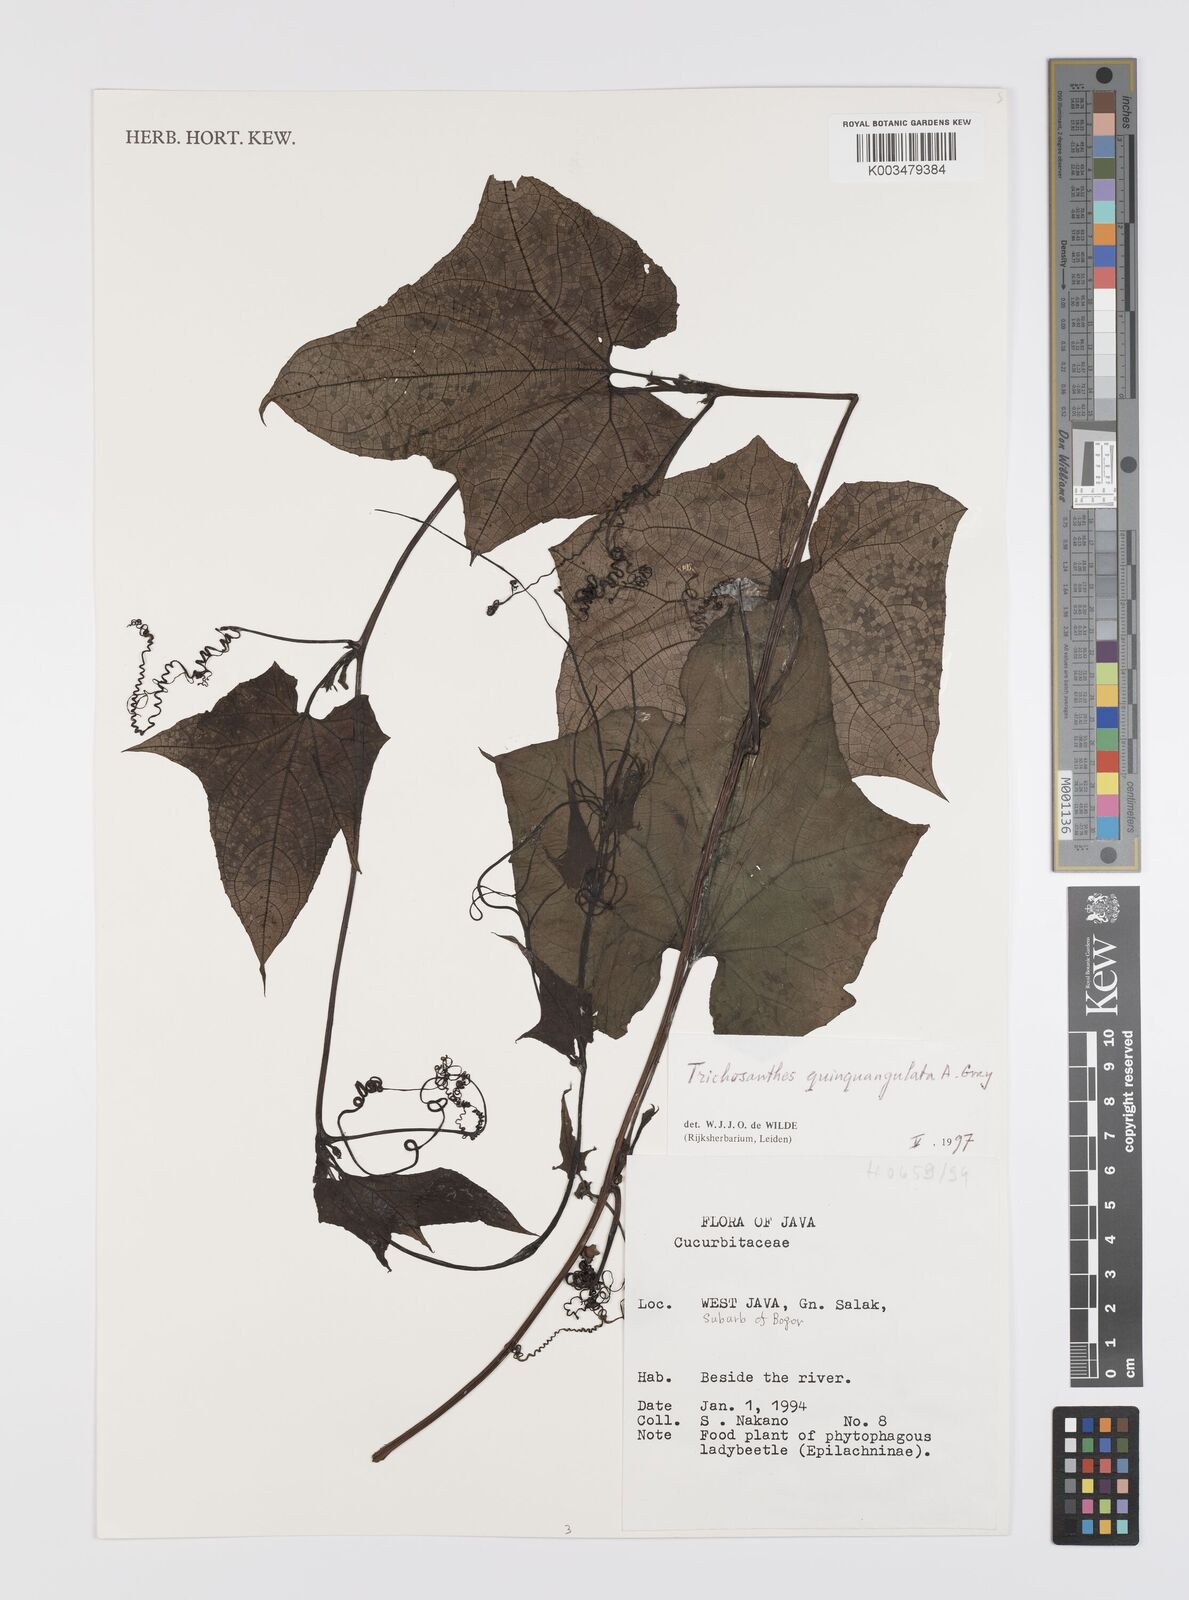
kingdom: Plantae
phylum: Tracheophyta
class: Magnoliopsida
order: Cucurbitales
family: Cucurbitaceae
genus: Trichosanthes
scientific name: Trichosanthes tricuspidata
